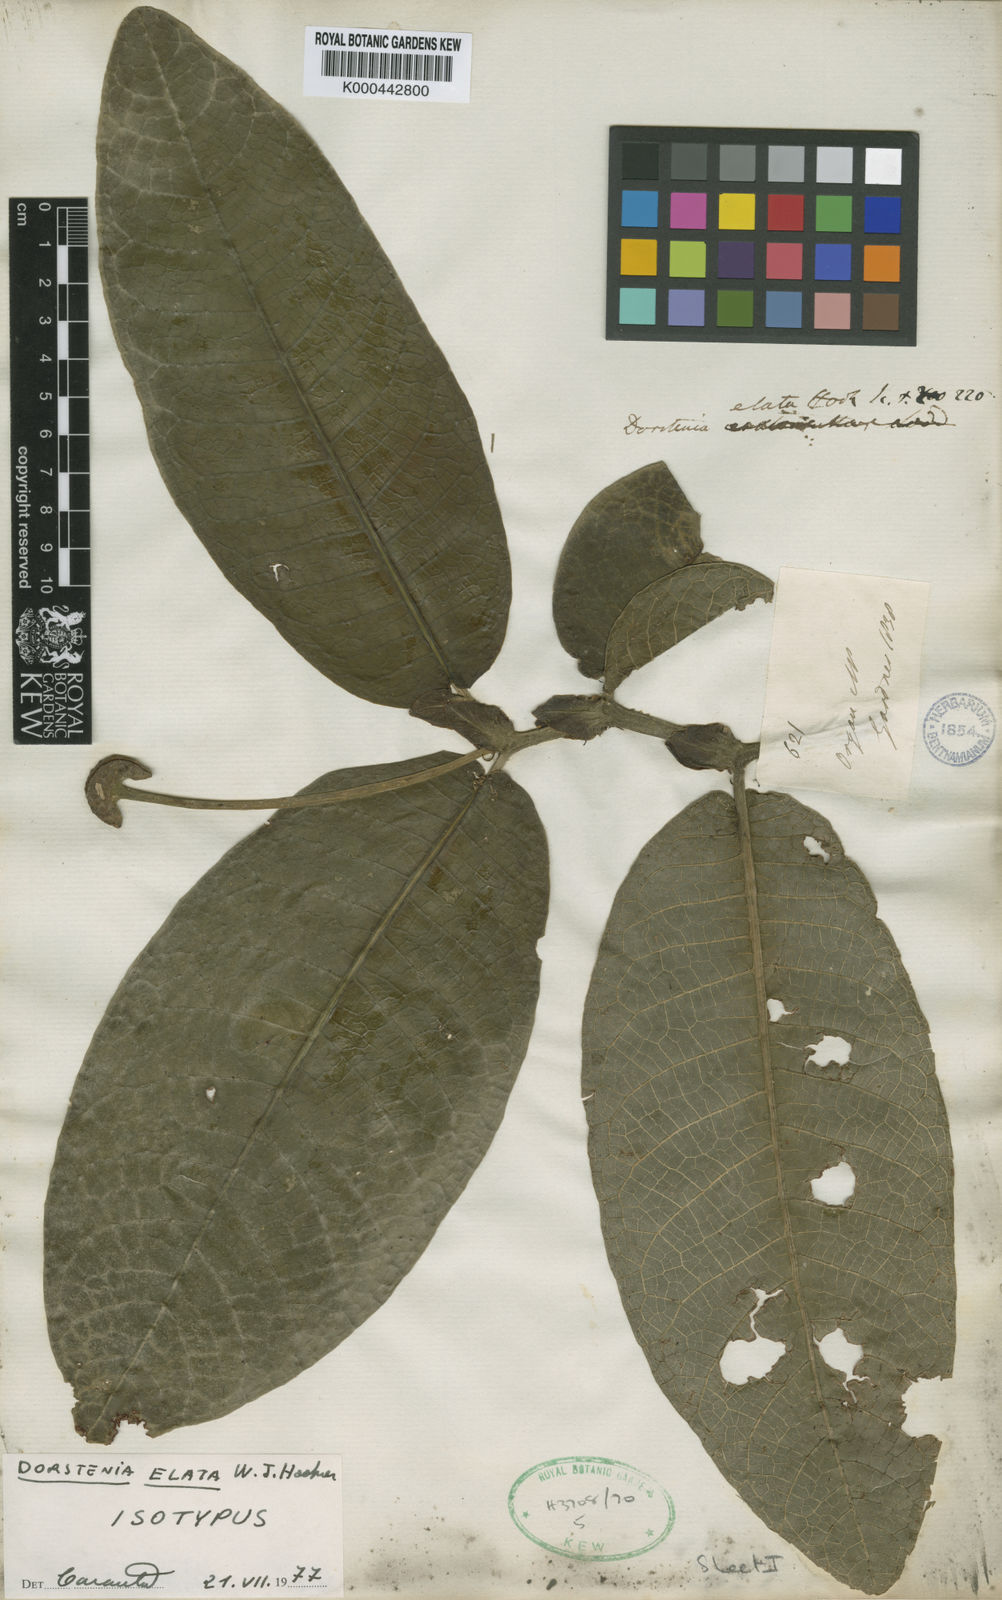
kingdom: Plantae
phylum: Tracheophyta
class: Magnoliopsida
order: Rosales
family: Moraceae
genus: Dorstenia
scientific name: Dorstenia
